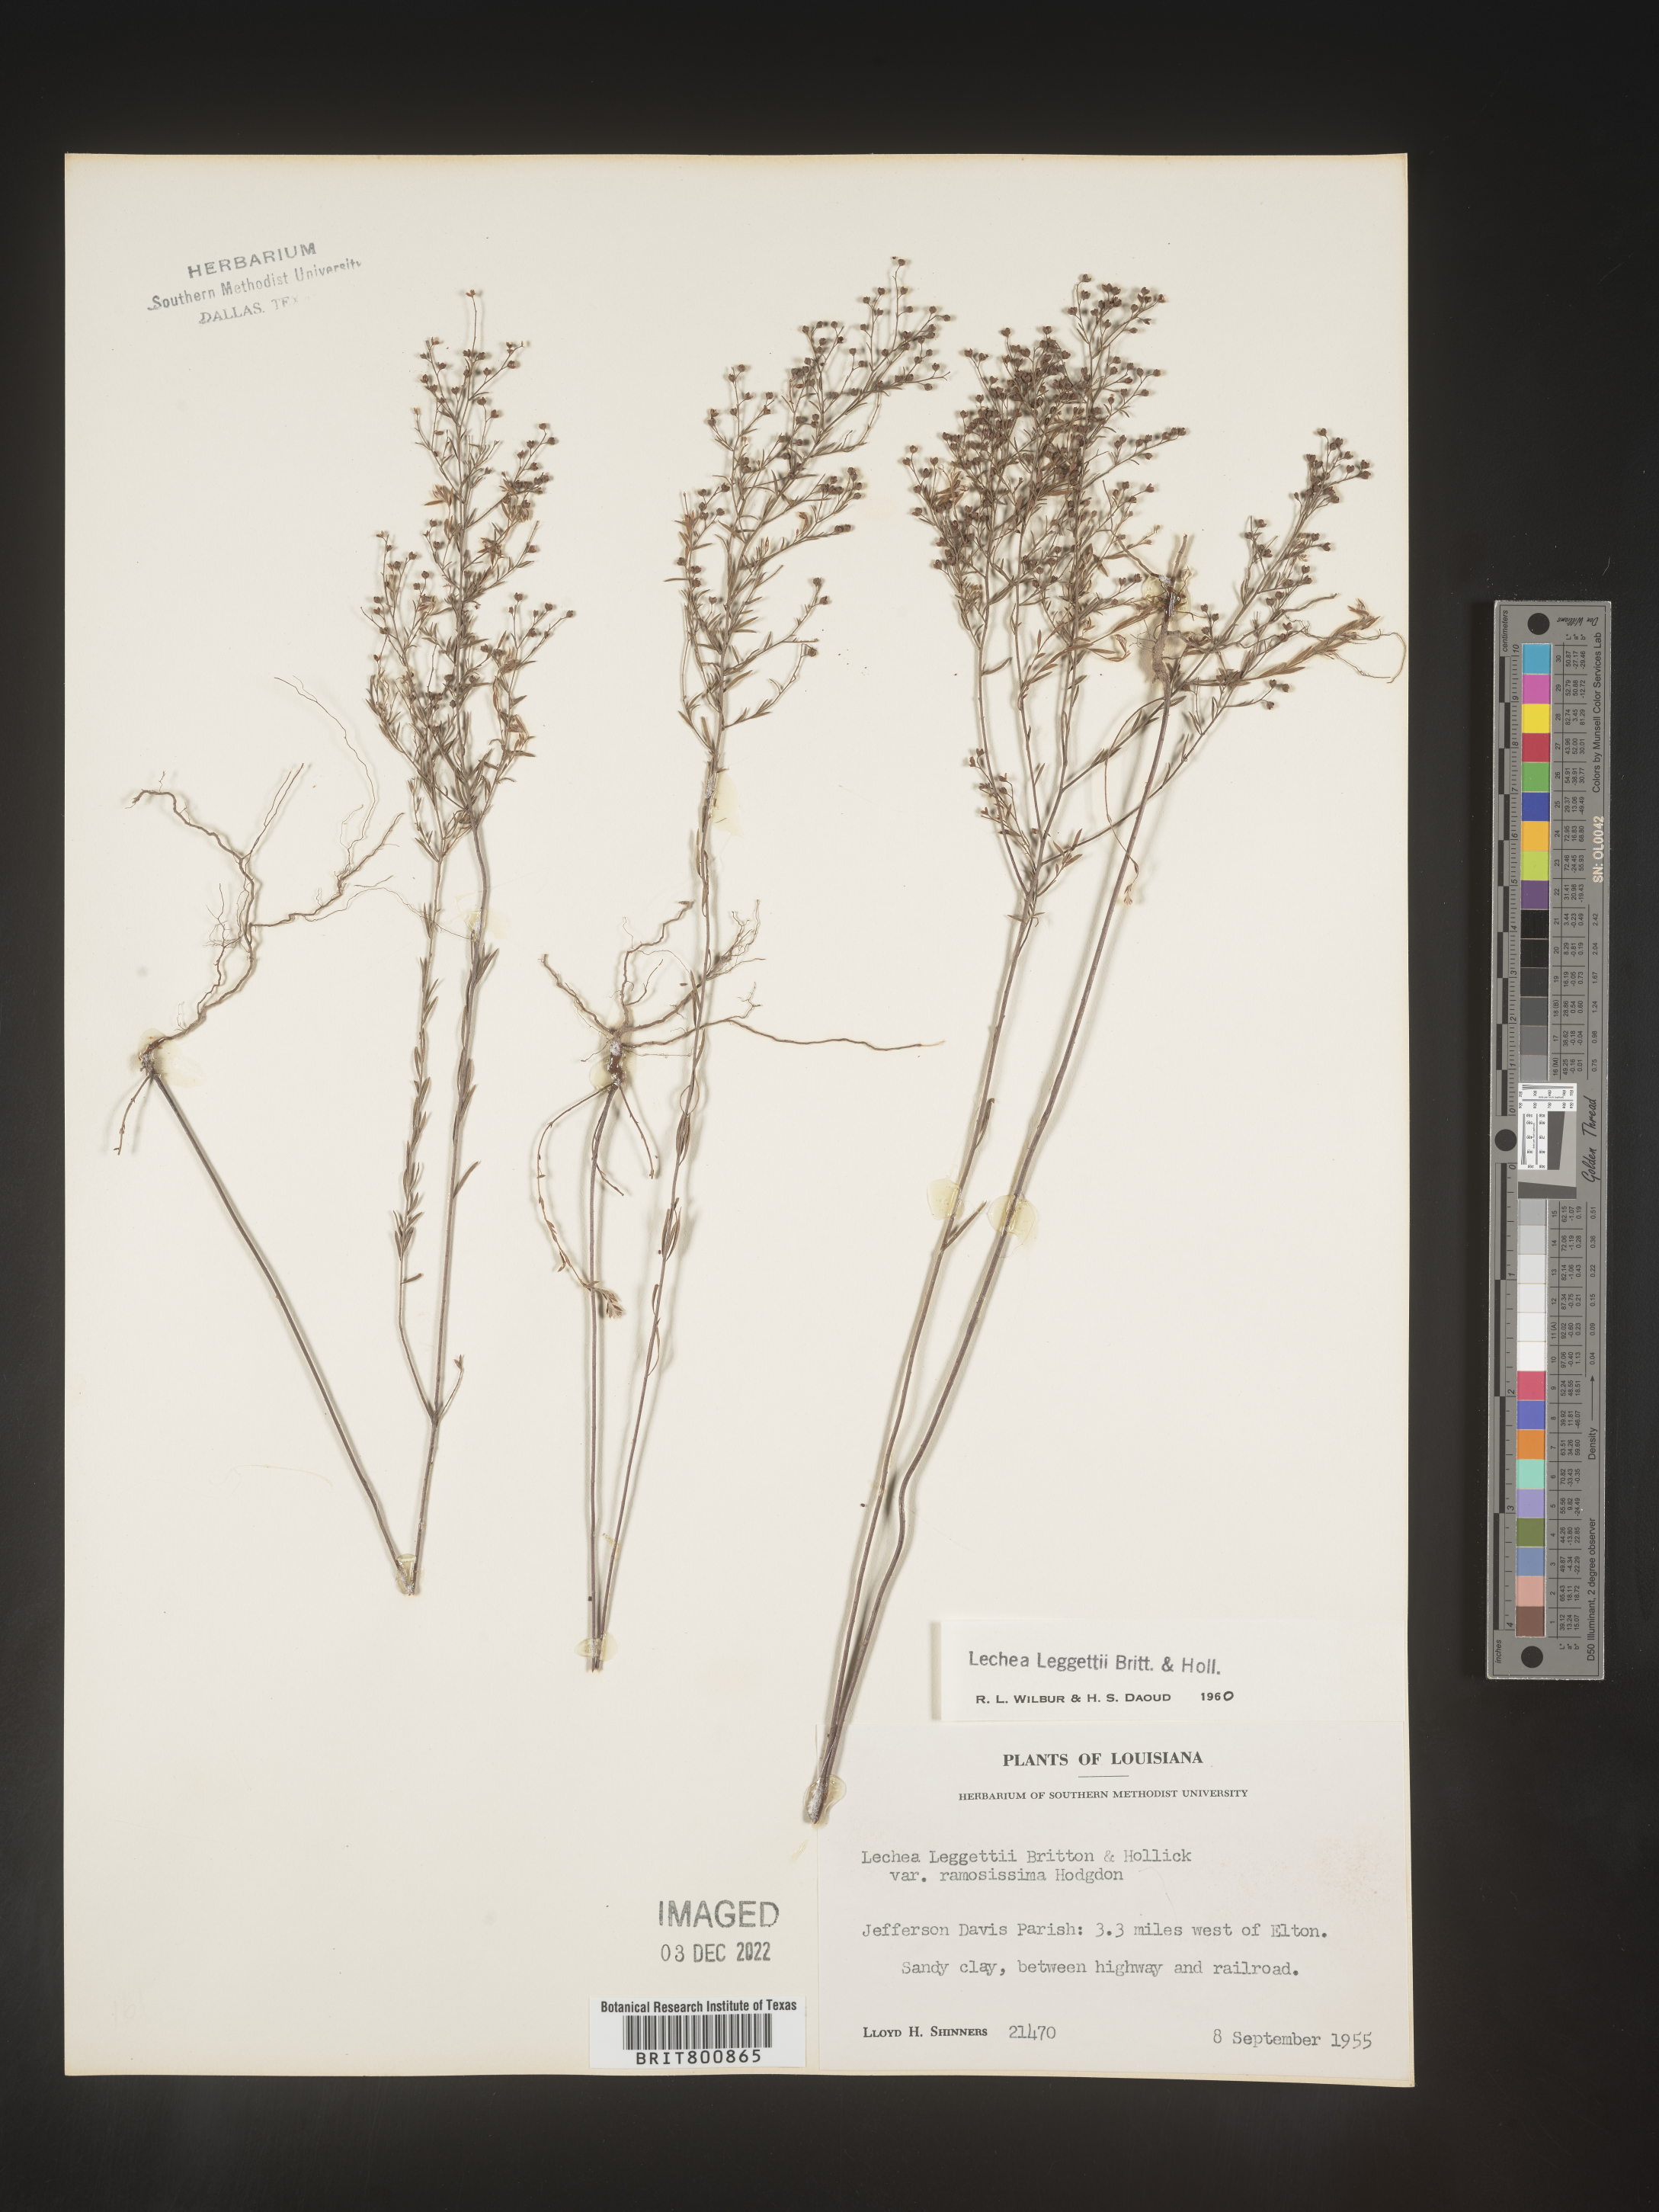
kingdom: Plantae
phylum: Tracheophyta
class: Magnoliopsida
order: Malvales
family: Cistaceae
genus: Lechea
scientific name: Lechea pulchella
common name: Leggett's pinweed
